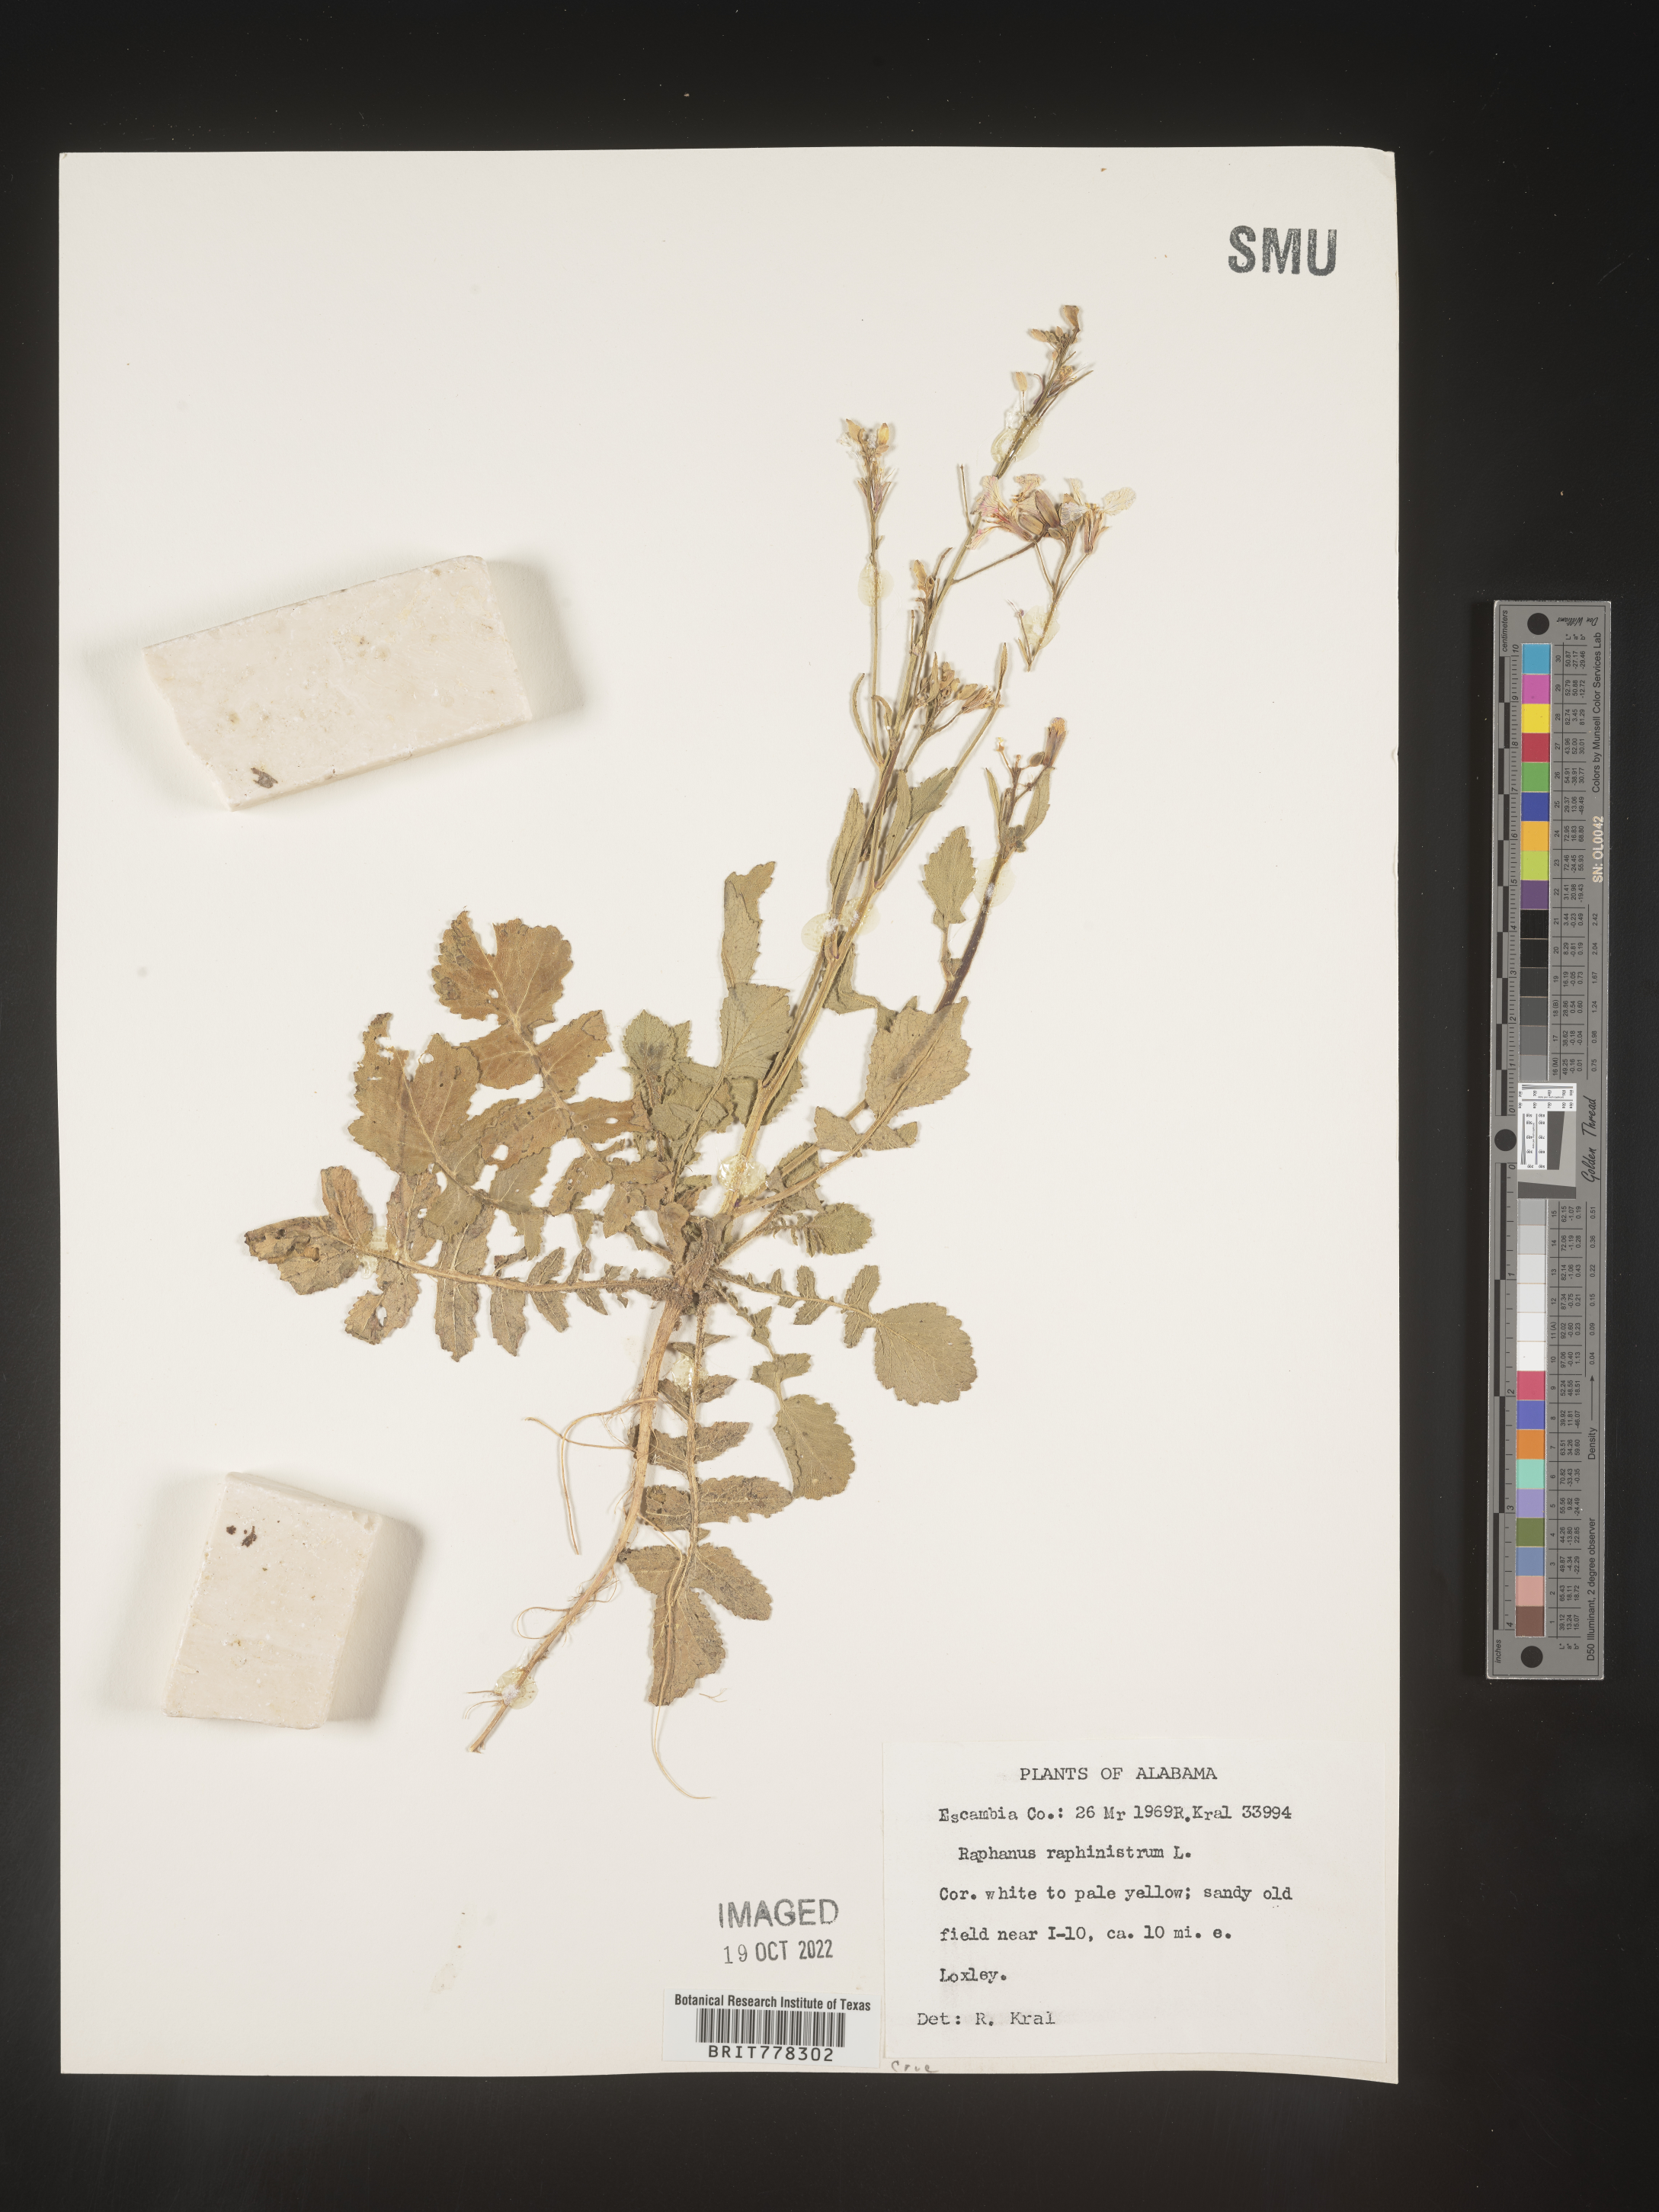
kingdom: Plantae
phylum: Tracheophyta
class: Magnoliopsida
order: Brassicales
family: Brassicaceae
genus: Raphanus
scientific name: Raphanus raphanistrum
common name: Wild radish
